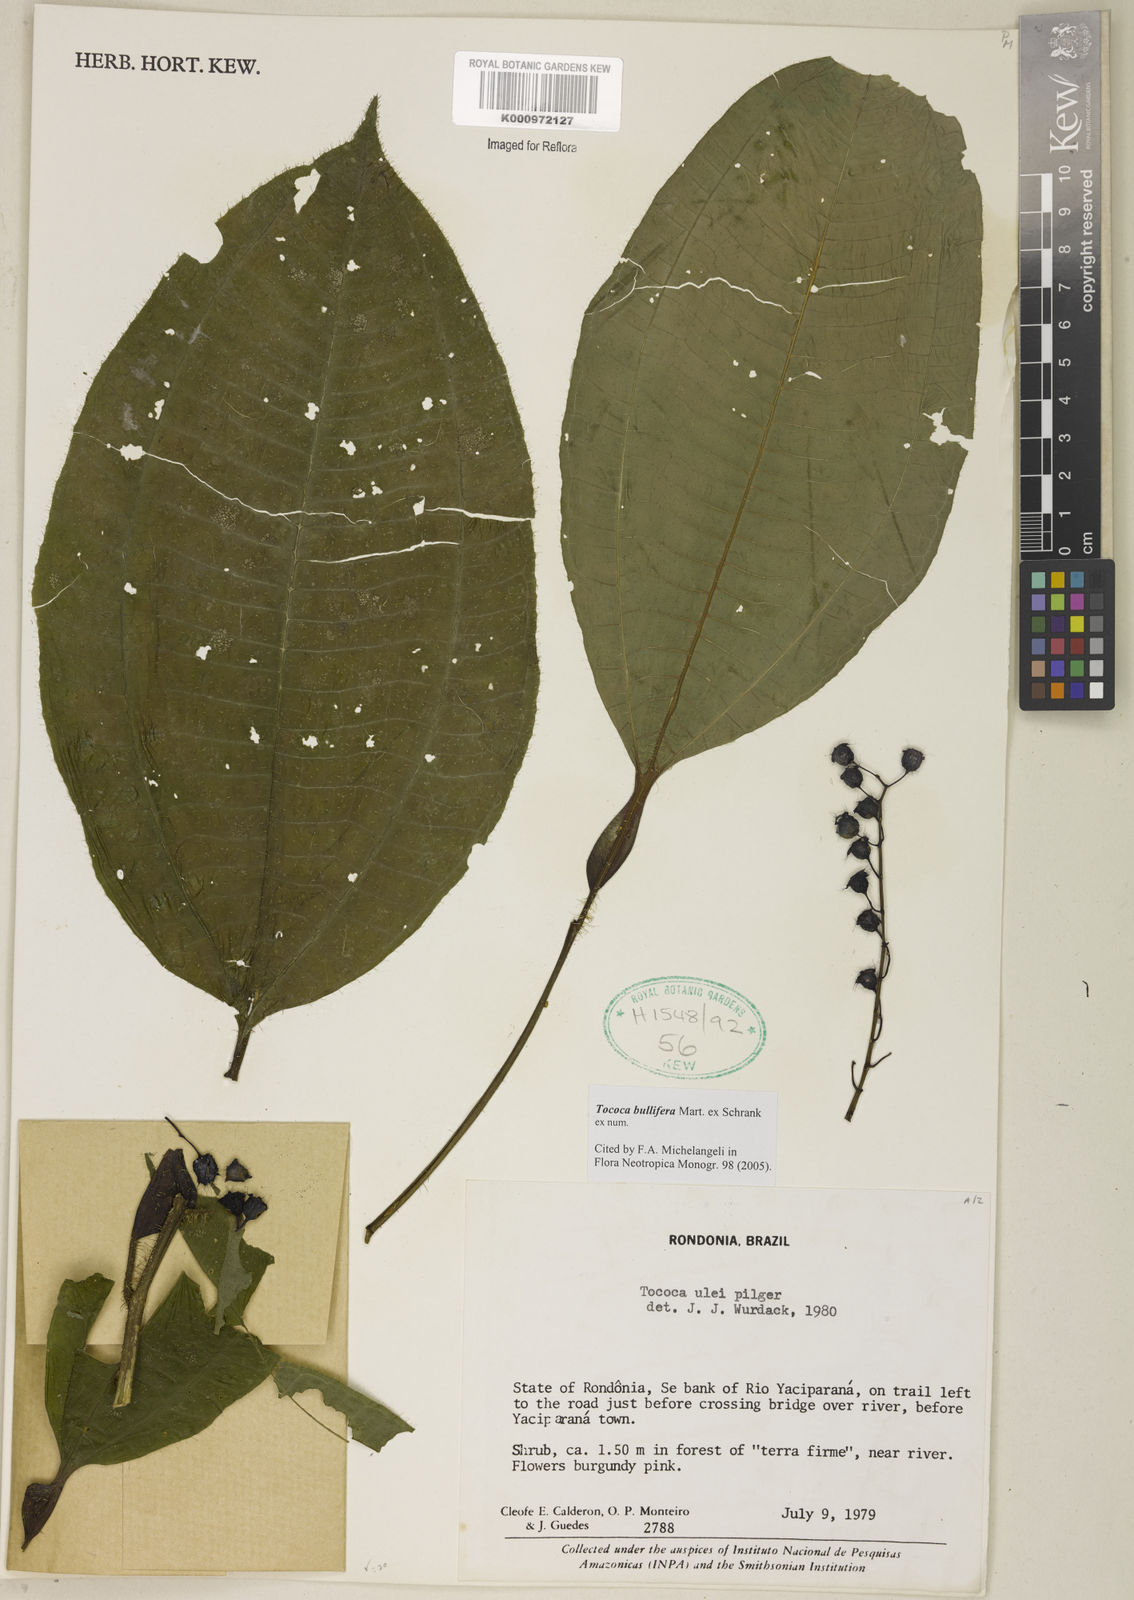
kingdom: Plantae
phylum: Tracheophyta
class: Magnoliopsida
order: Myrtales
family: Melastomataceae
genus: Miconia
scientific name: Miconia bullifera
